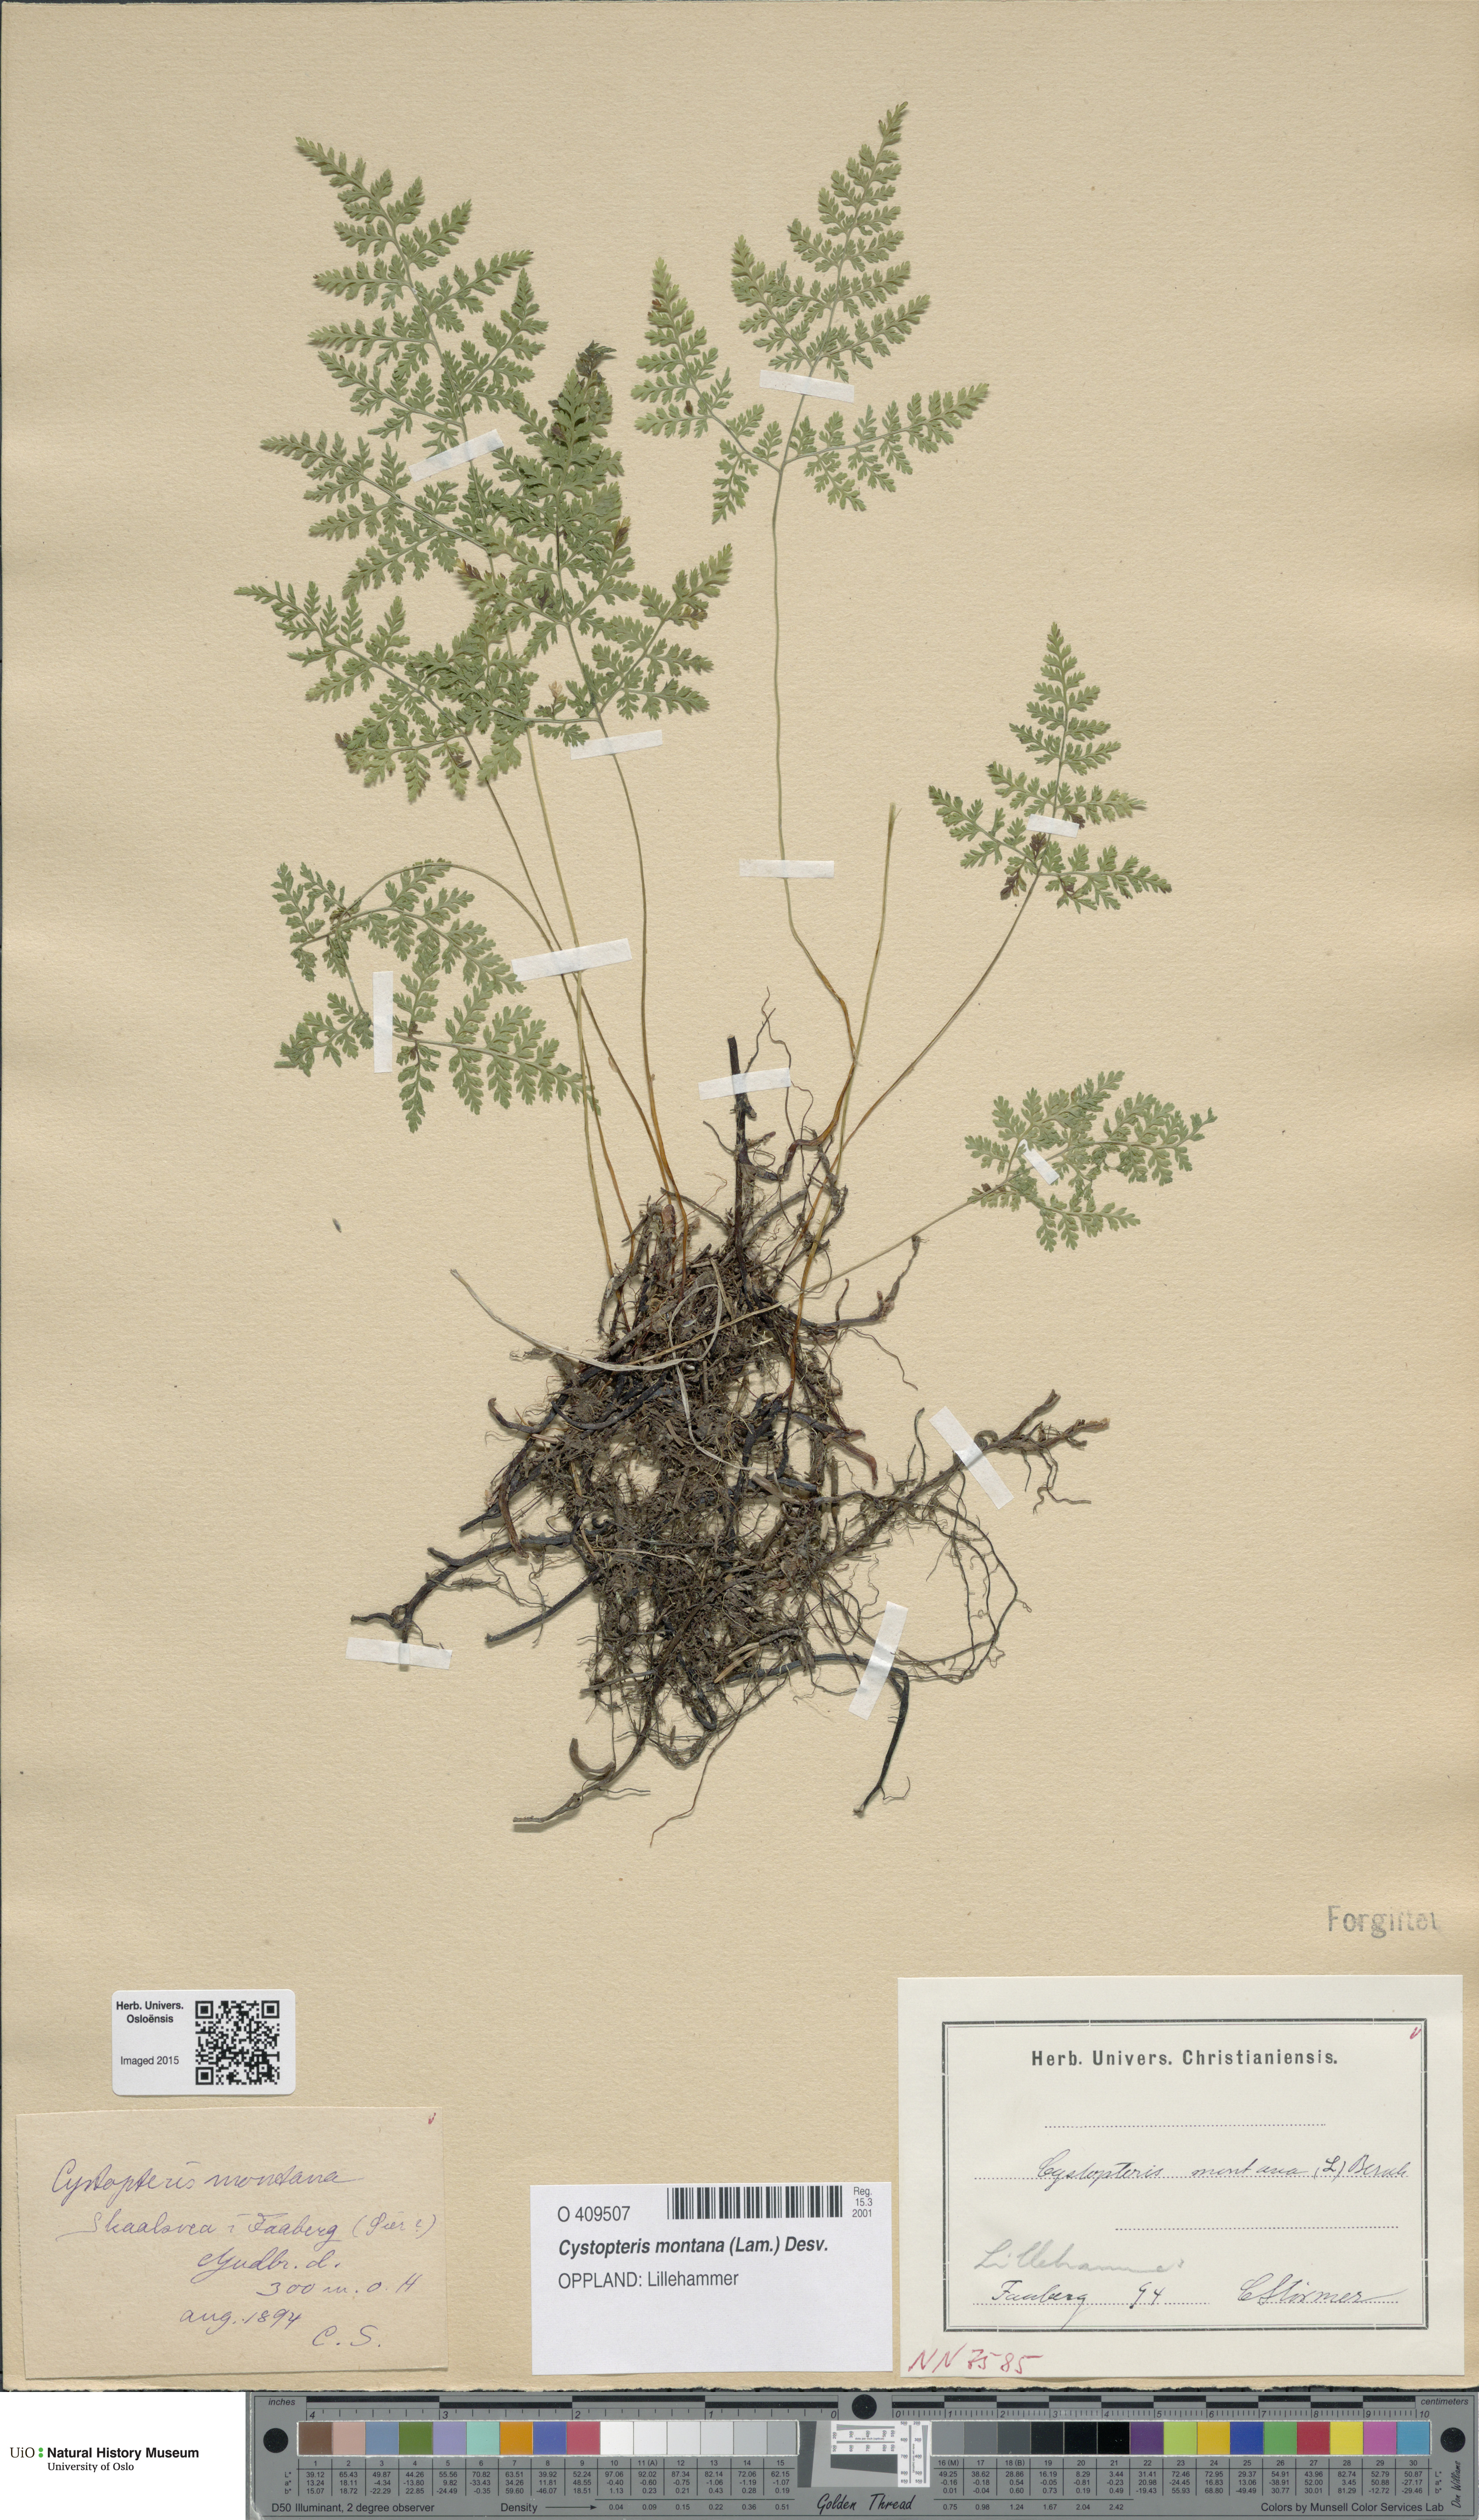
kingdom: Plantae
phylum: Tracheophyta
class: Polypodiopsida
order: Polypodiales
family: Cystopteridaceae
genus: Cystopteris
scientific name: Cystopteris montana
